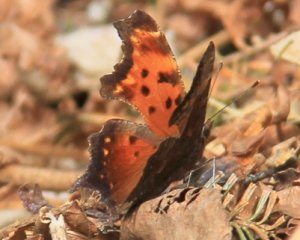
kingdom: Animalia
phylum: Arthropoda
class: Insecta
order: Lepidoptera
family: Nymphalidae
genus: Polygonia
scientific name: Polygonia progne
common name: Gray Comma
